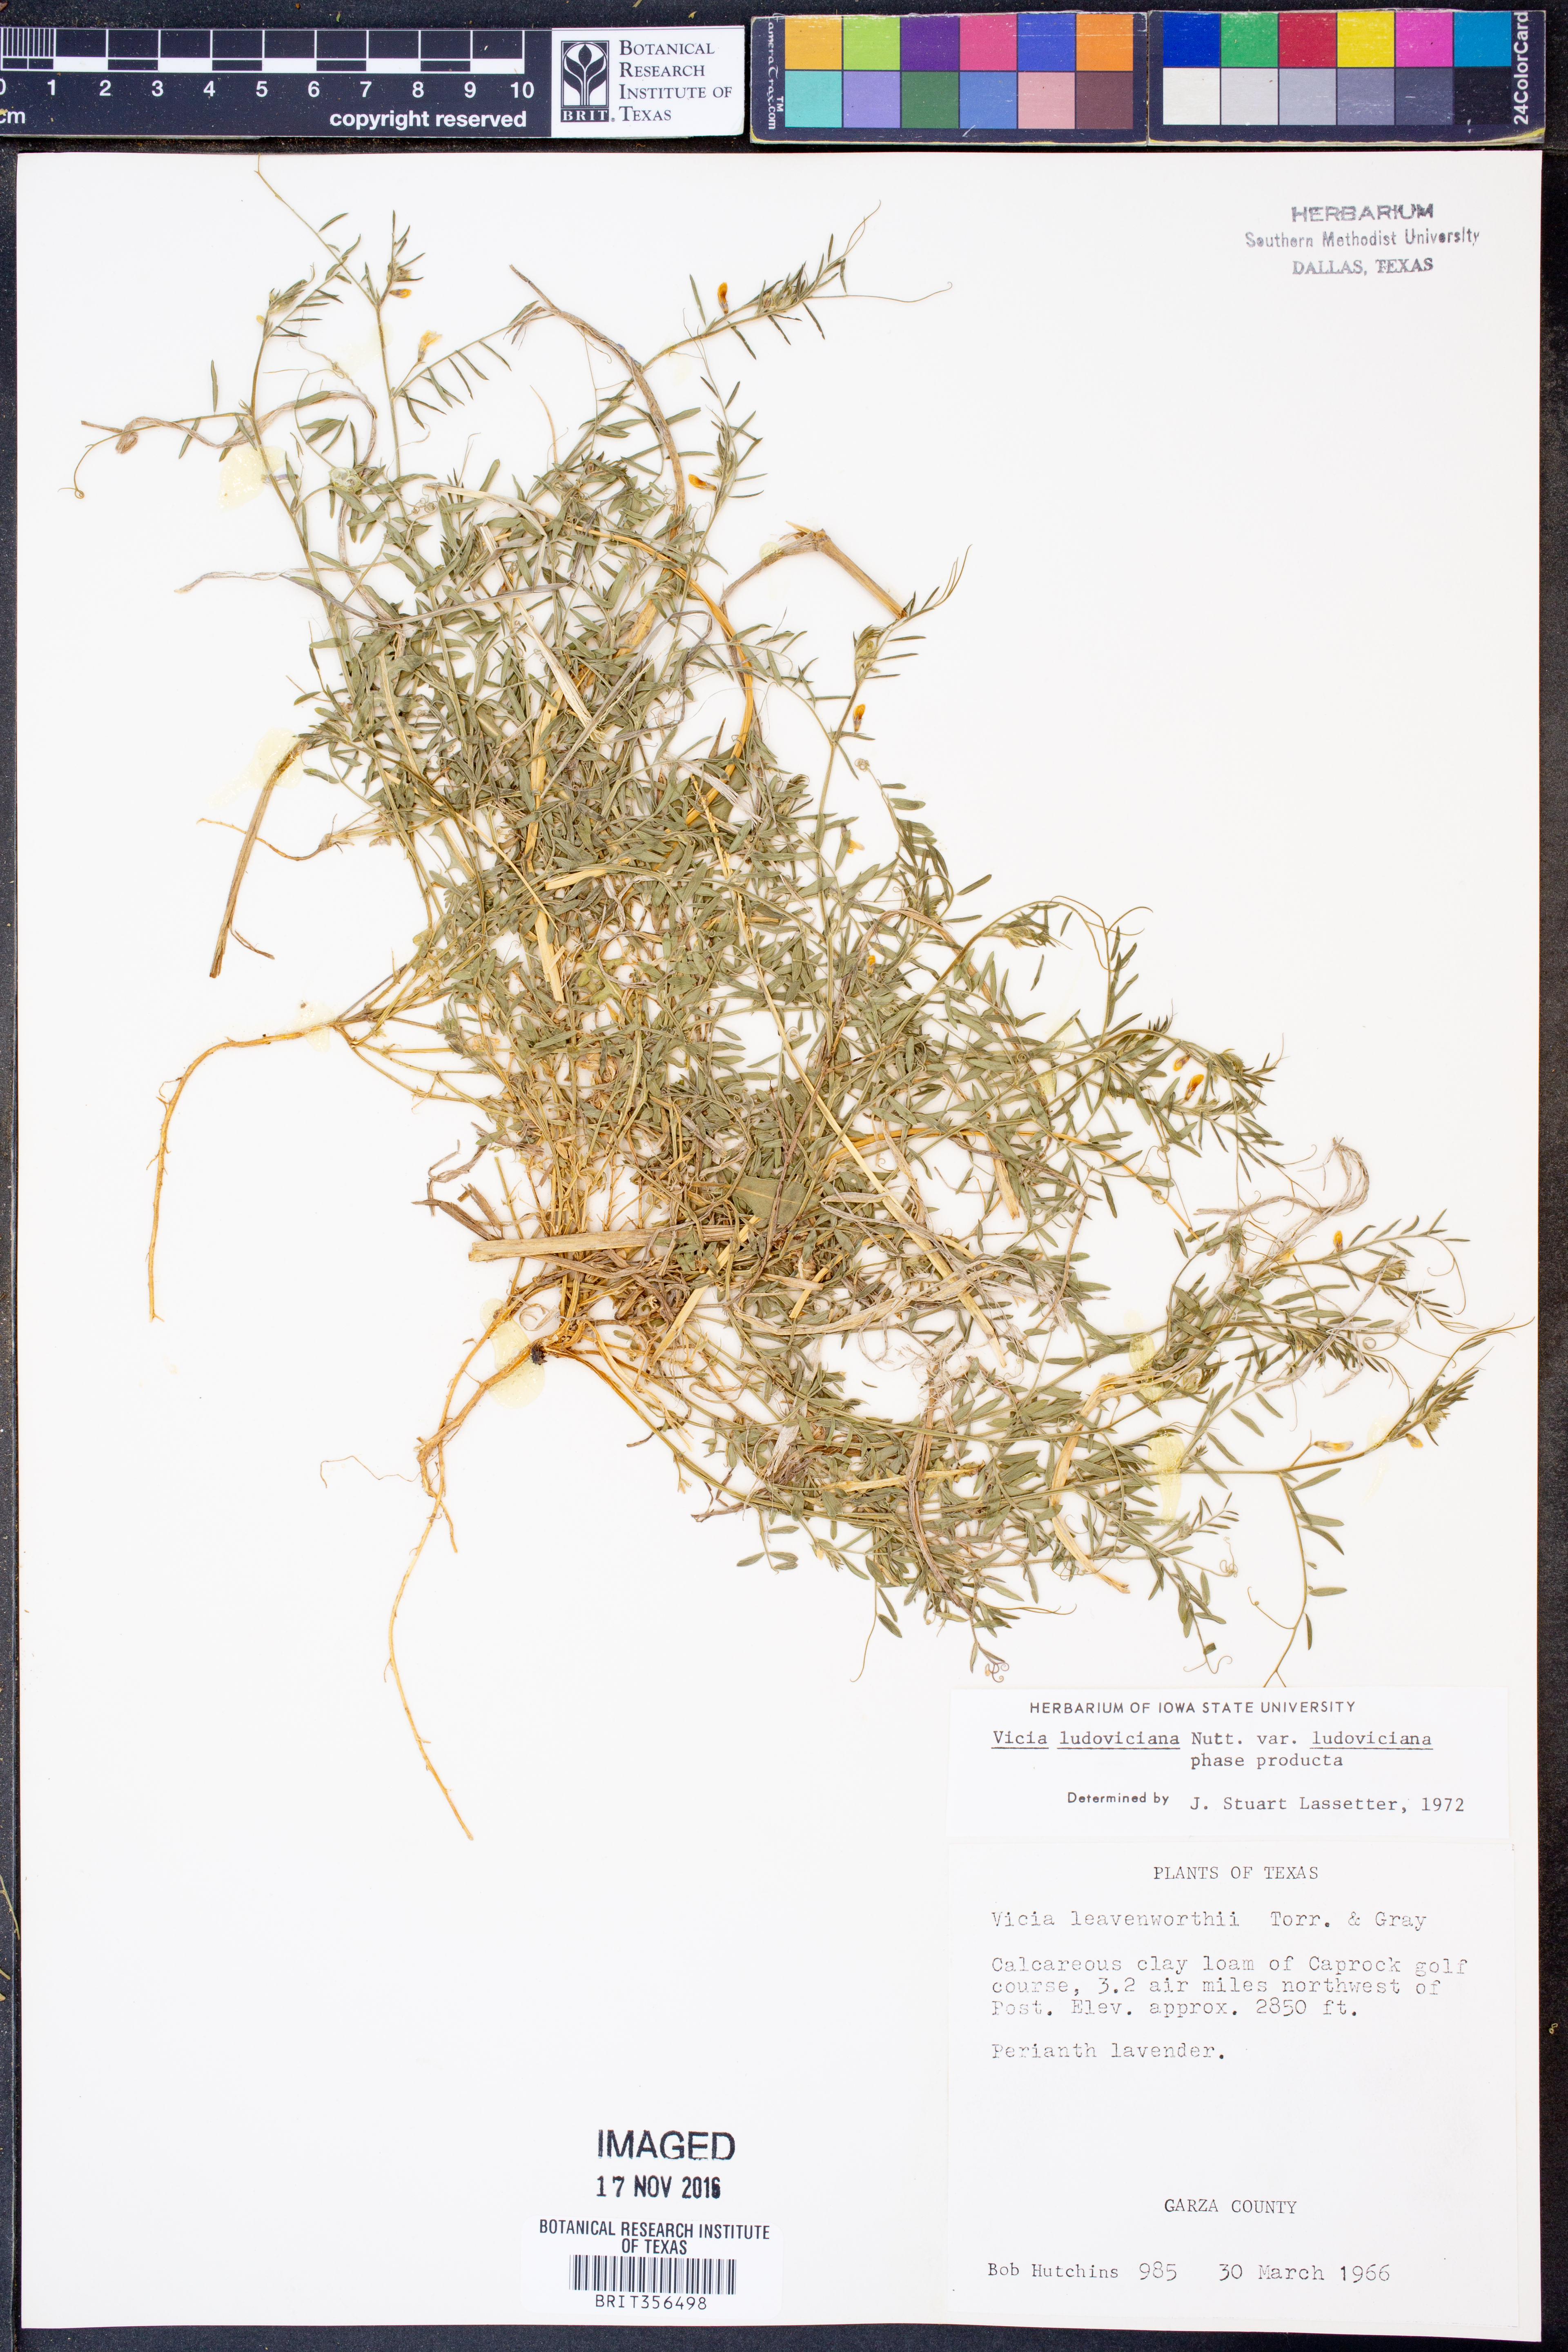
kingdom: Plantae
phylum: Tracheophyta
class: Magnoliopsida
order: Fabales
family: Fabaceae
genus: Vicia
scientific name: Vicia ludoviciana
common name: Louisiana vetch
